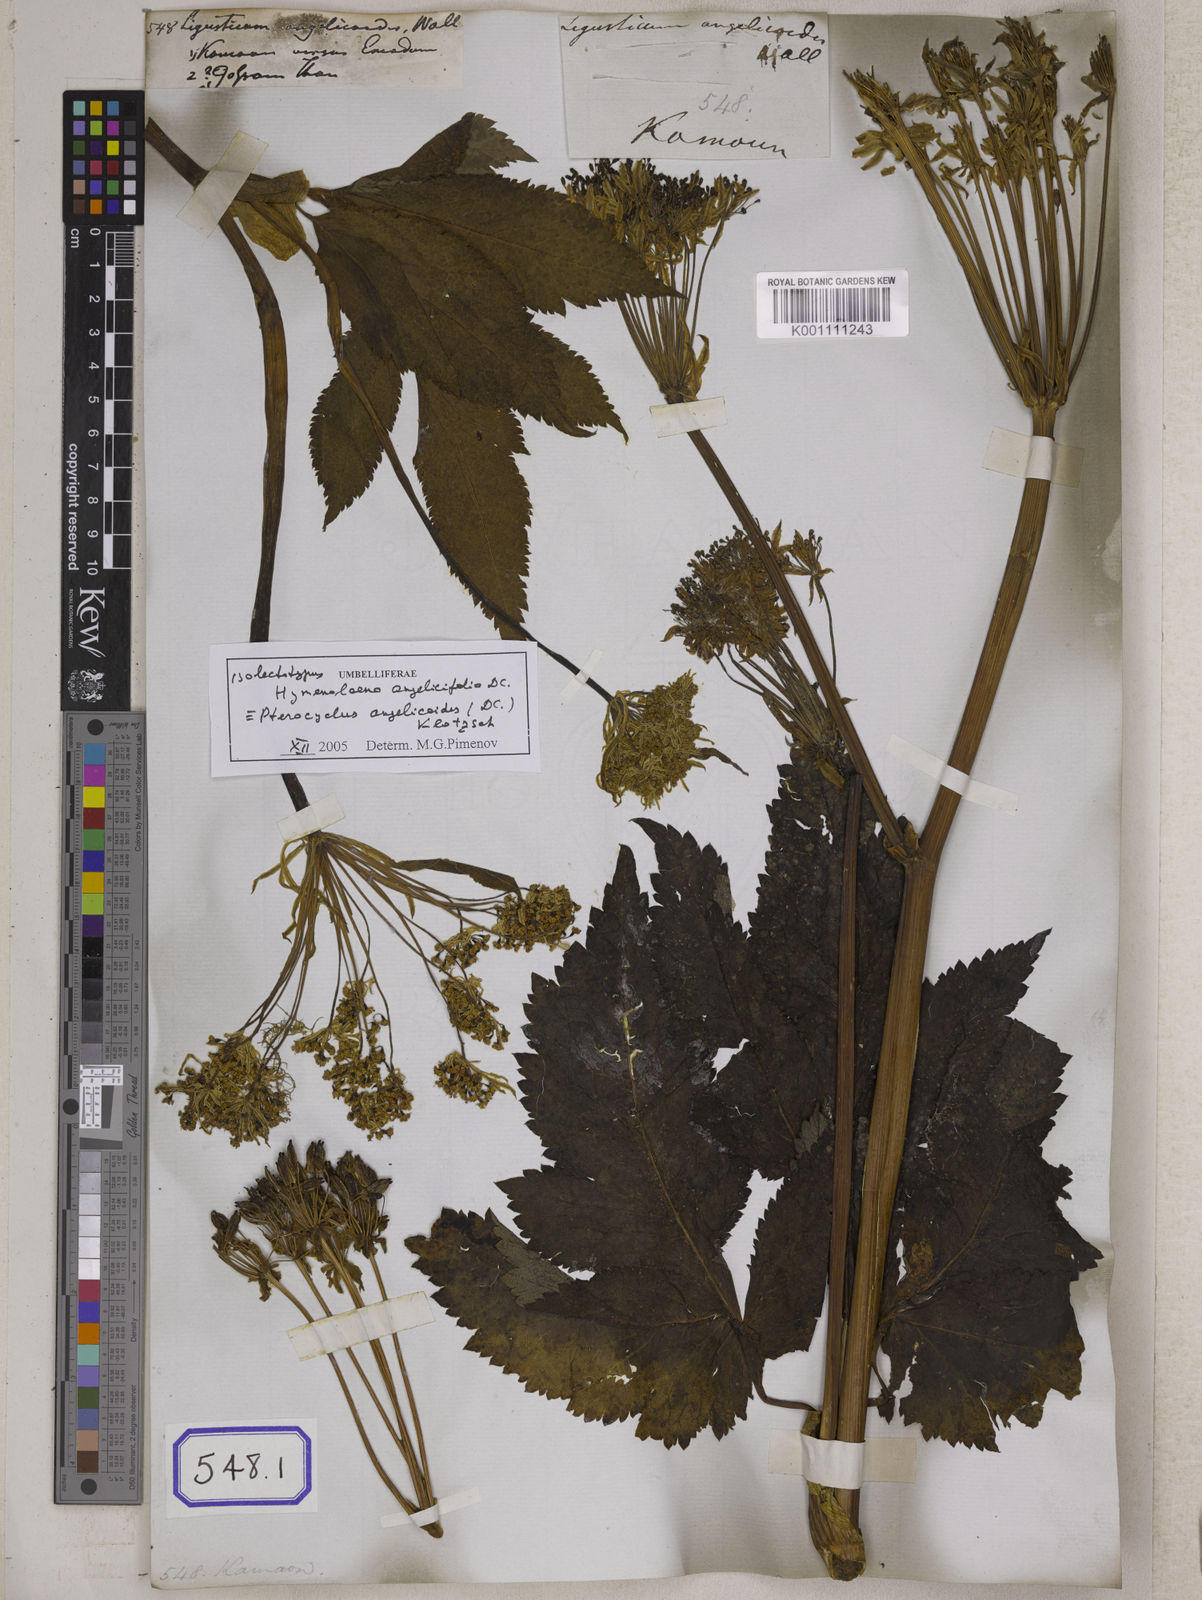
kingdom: Plantae
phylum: Tracheophyta
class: Magnoliopsida
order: Apiales
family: Apiaceae
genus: Pterocyclus
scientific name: Pterocyclus angelicoides
